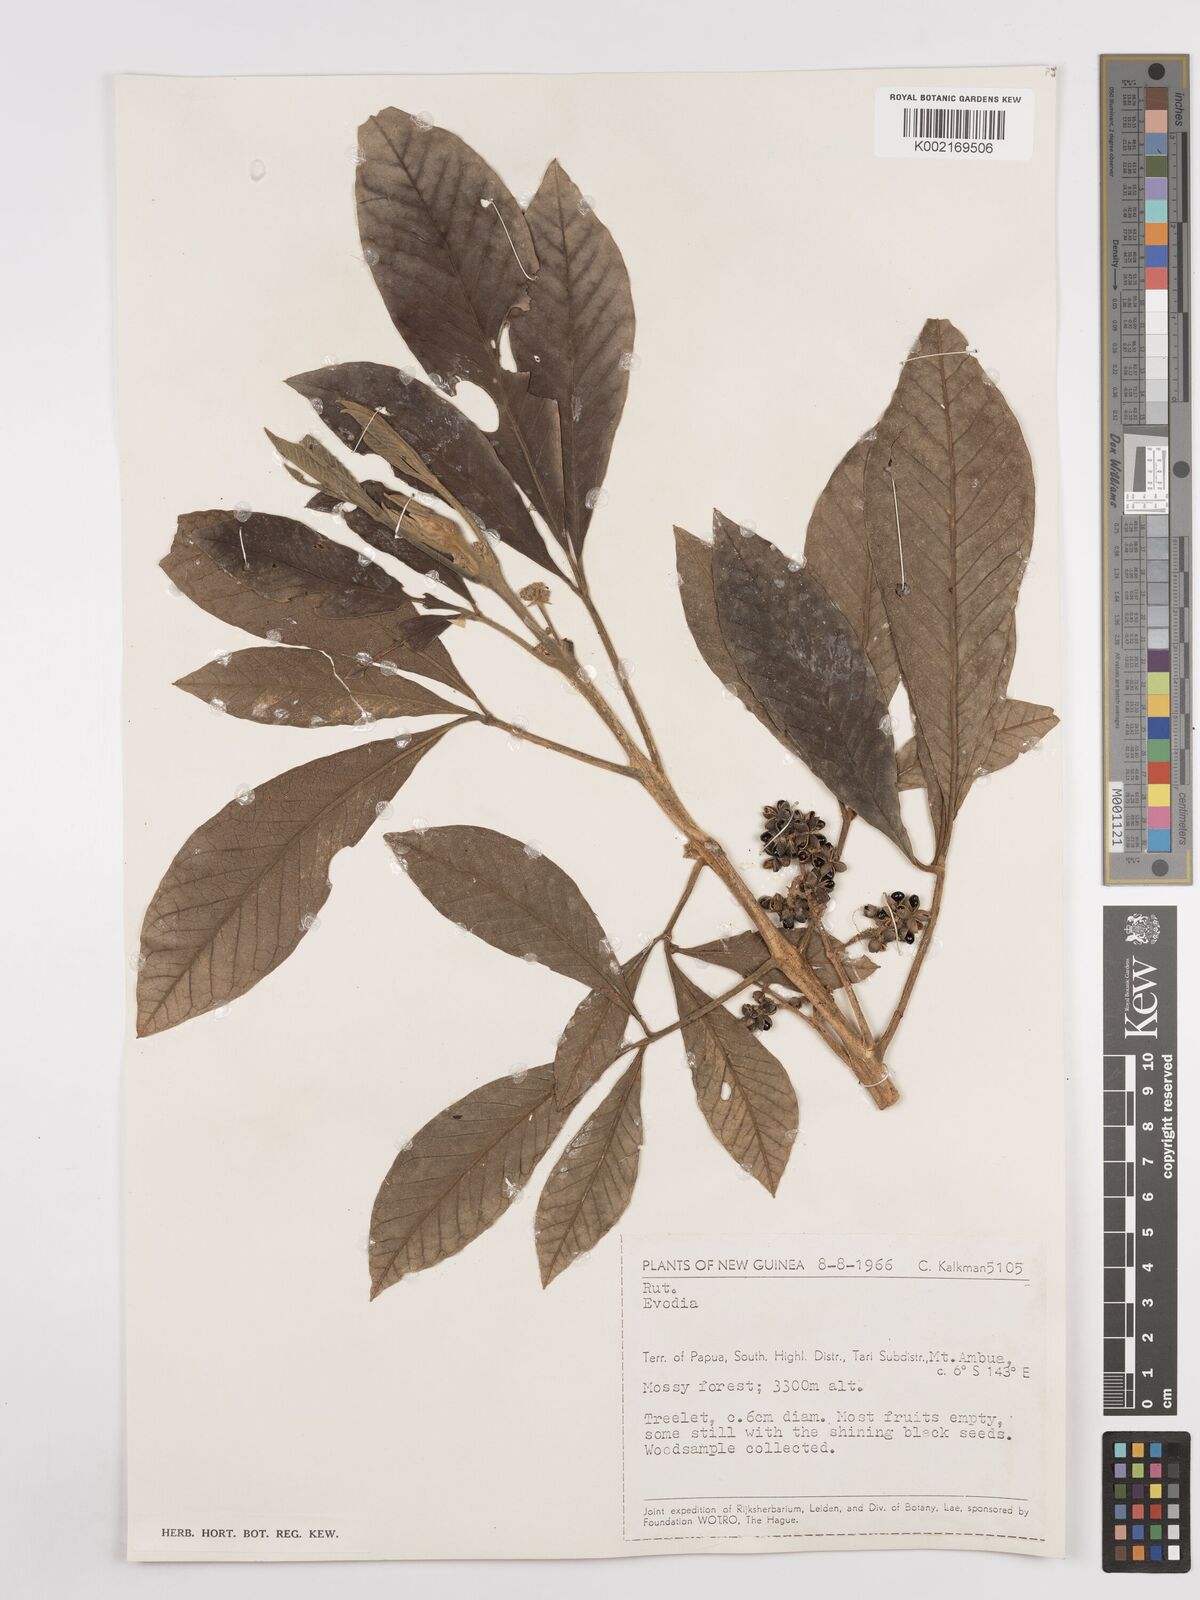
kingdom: Plantae
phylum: Tracheophyta
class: Magnoliopsida
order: Sapindales
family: Rutaceae
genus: Euodia
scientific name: Euodia
